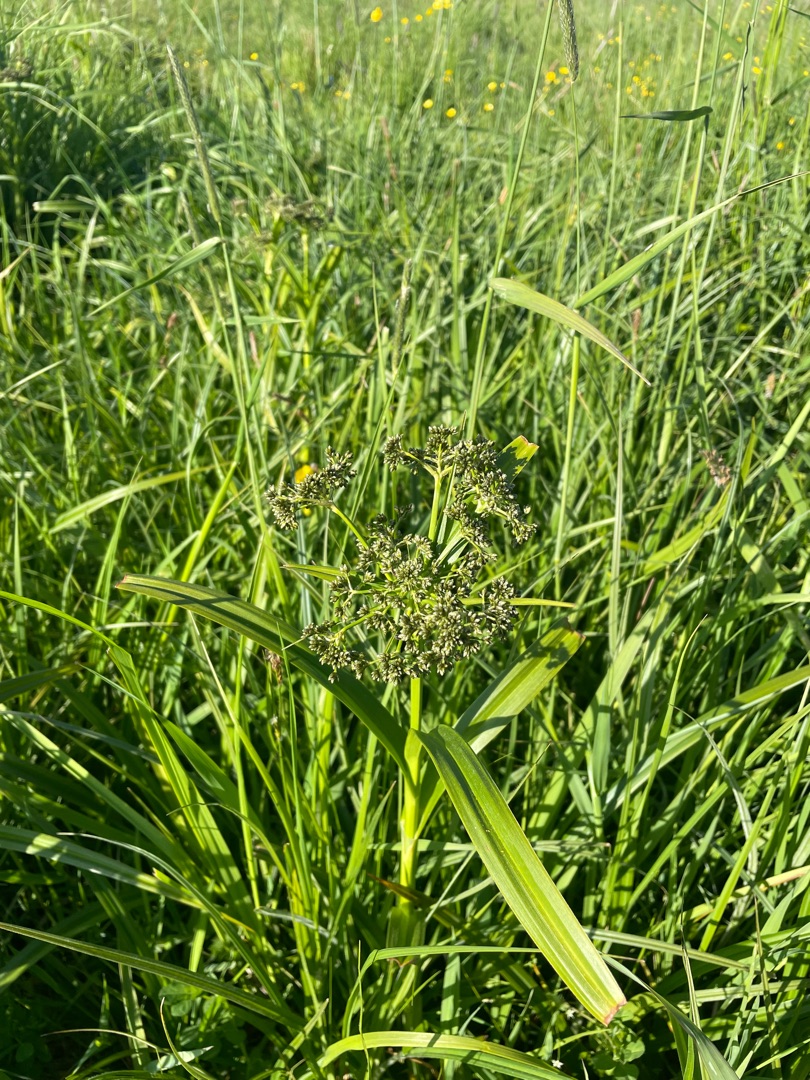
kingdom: Plantae
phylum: Tracheophyta
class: Liliopsida
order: Poales
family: Cyperaceae
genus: Scirpus
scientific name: Scirpus sylvaticus
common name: Skov-kogleaks
